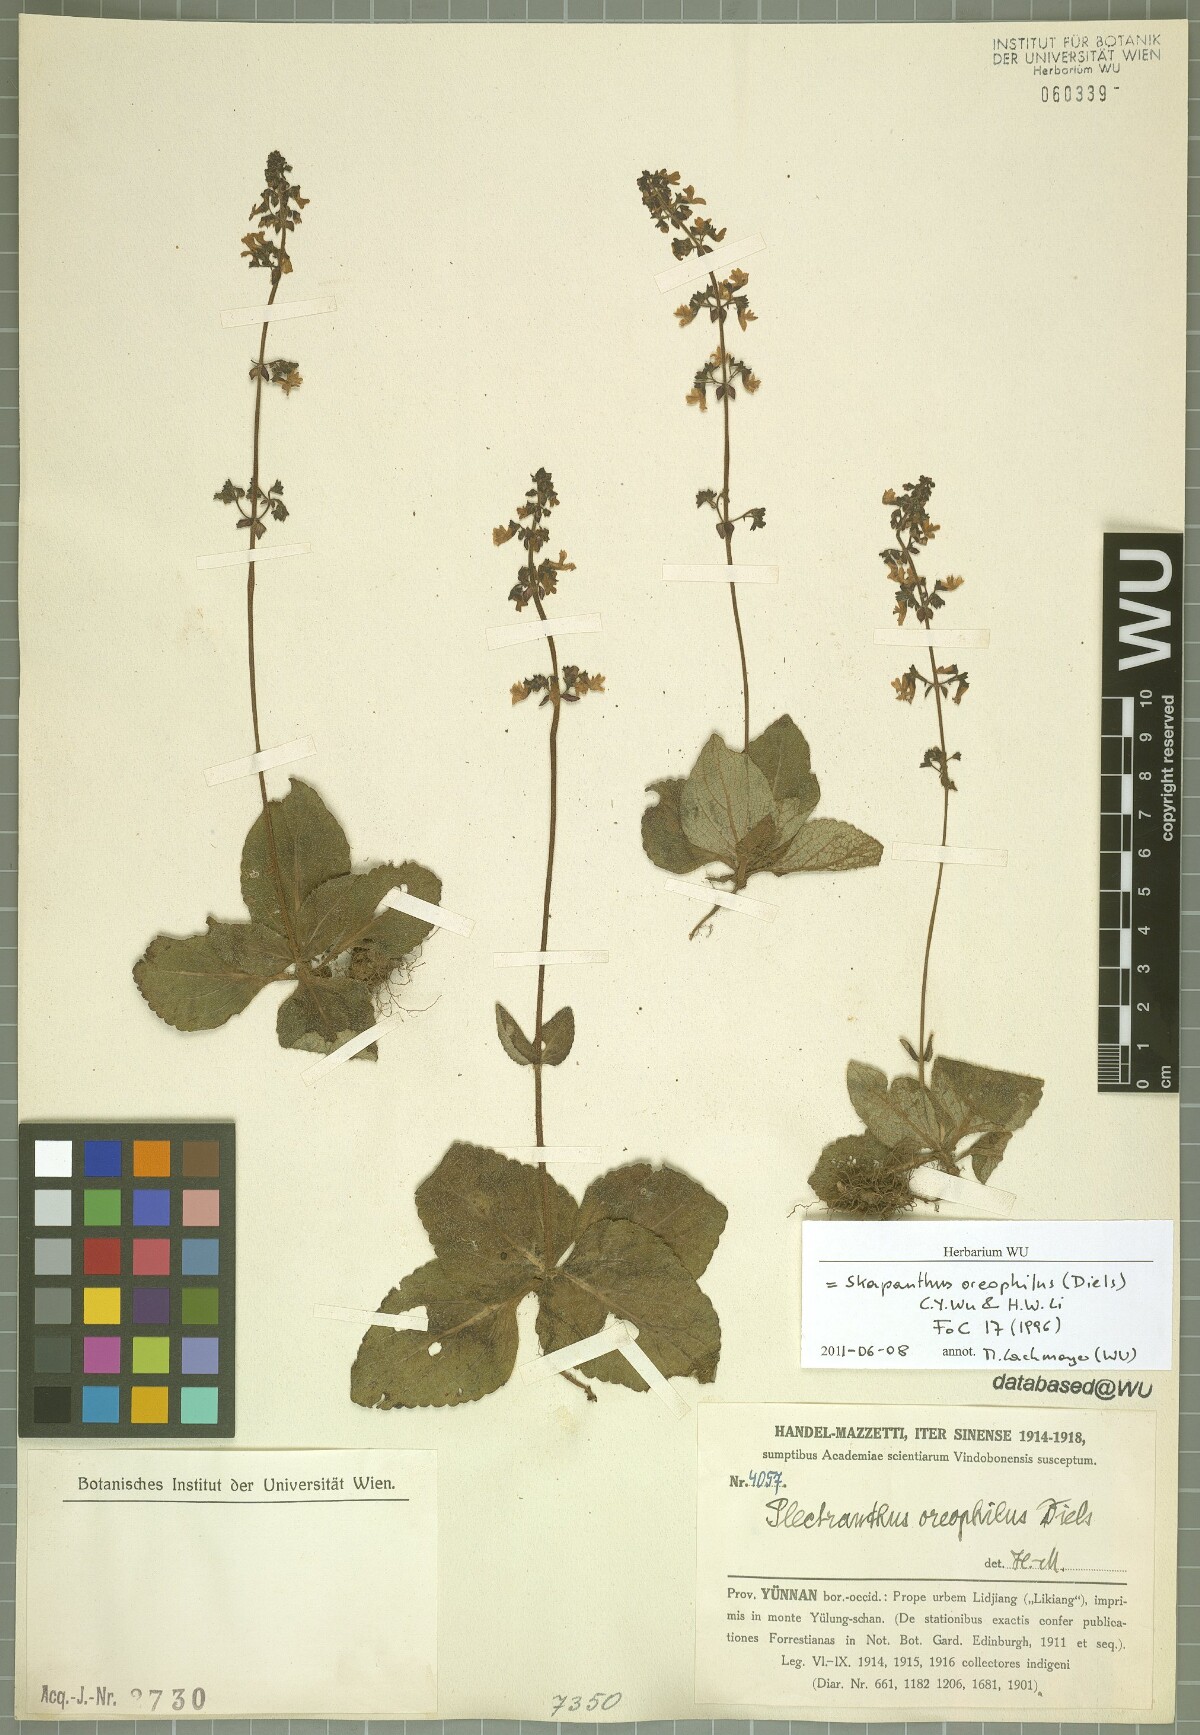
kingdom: Plantae
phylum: Tracheophyta
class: Magnoliopsida
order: Lamiales
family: Lamiaceae
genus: Isodon
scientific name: Isodon oreophilus
